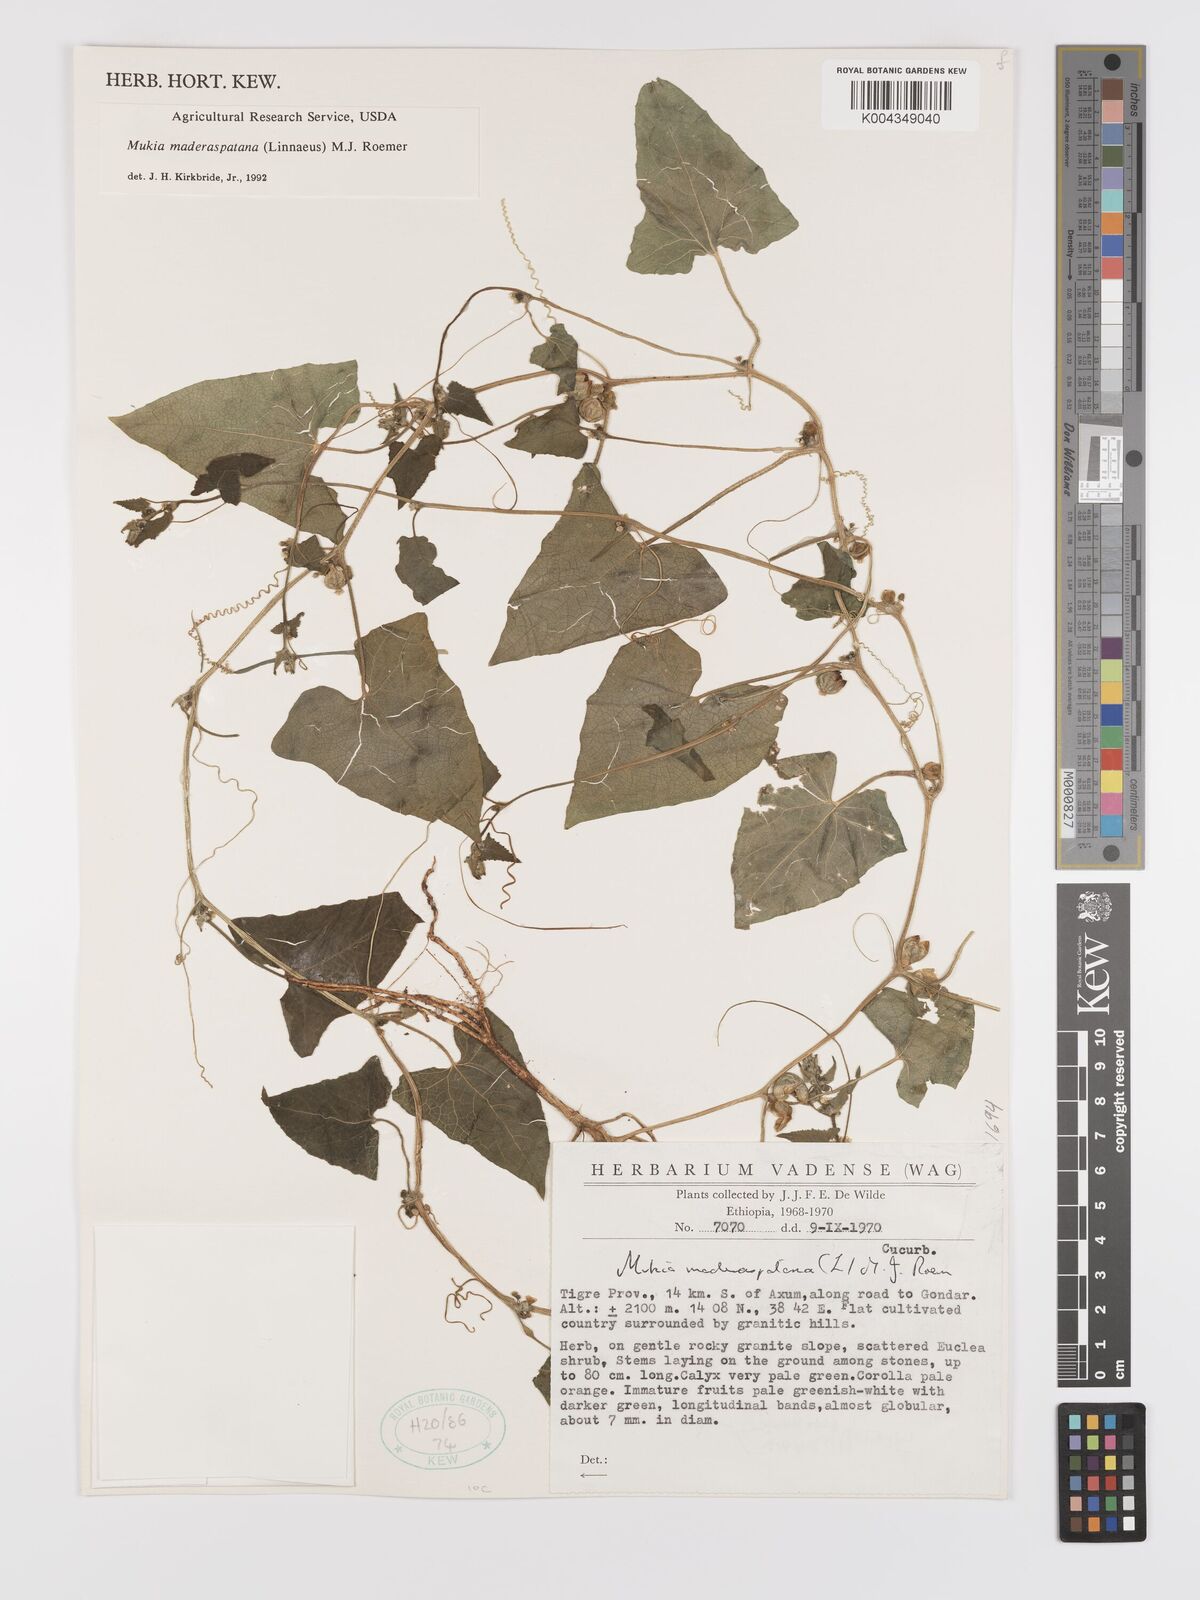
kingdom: Plantae
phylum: Tracheophyta
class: Magnoliopsida
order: Cucurbitales
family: Cucurbitaceae
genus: Cucumis
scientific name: Cucumis maderaspatanus
